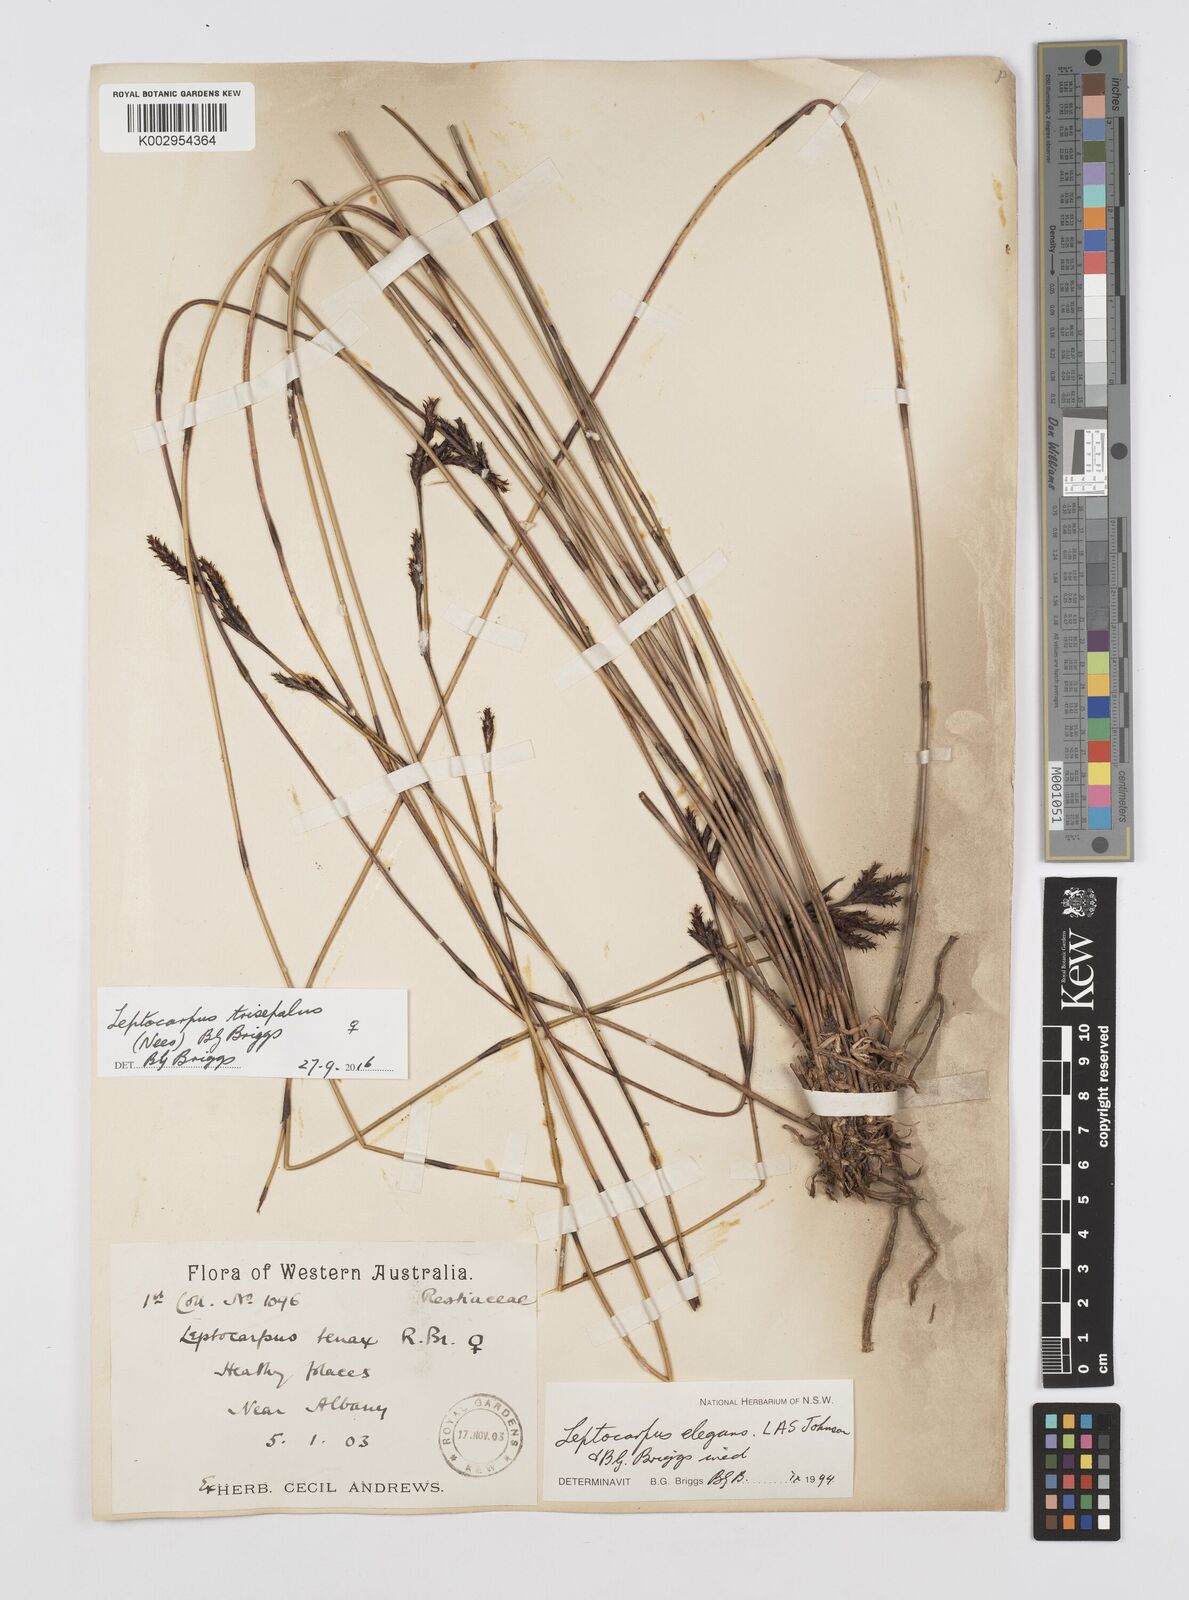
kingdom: Plantae
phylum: Tracheophyta
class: Liliopsida
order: Poales
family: Restionaceae
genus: Leptocarpus
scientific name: Leptocarpus trisepalus
